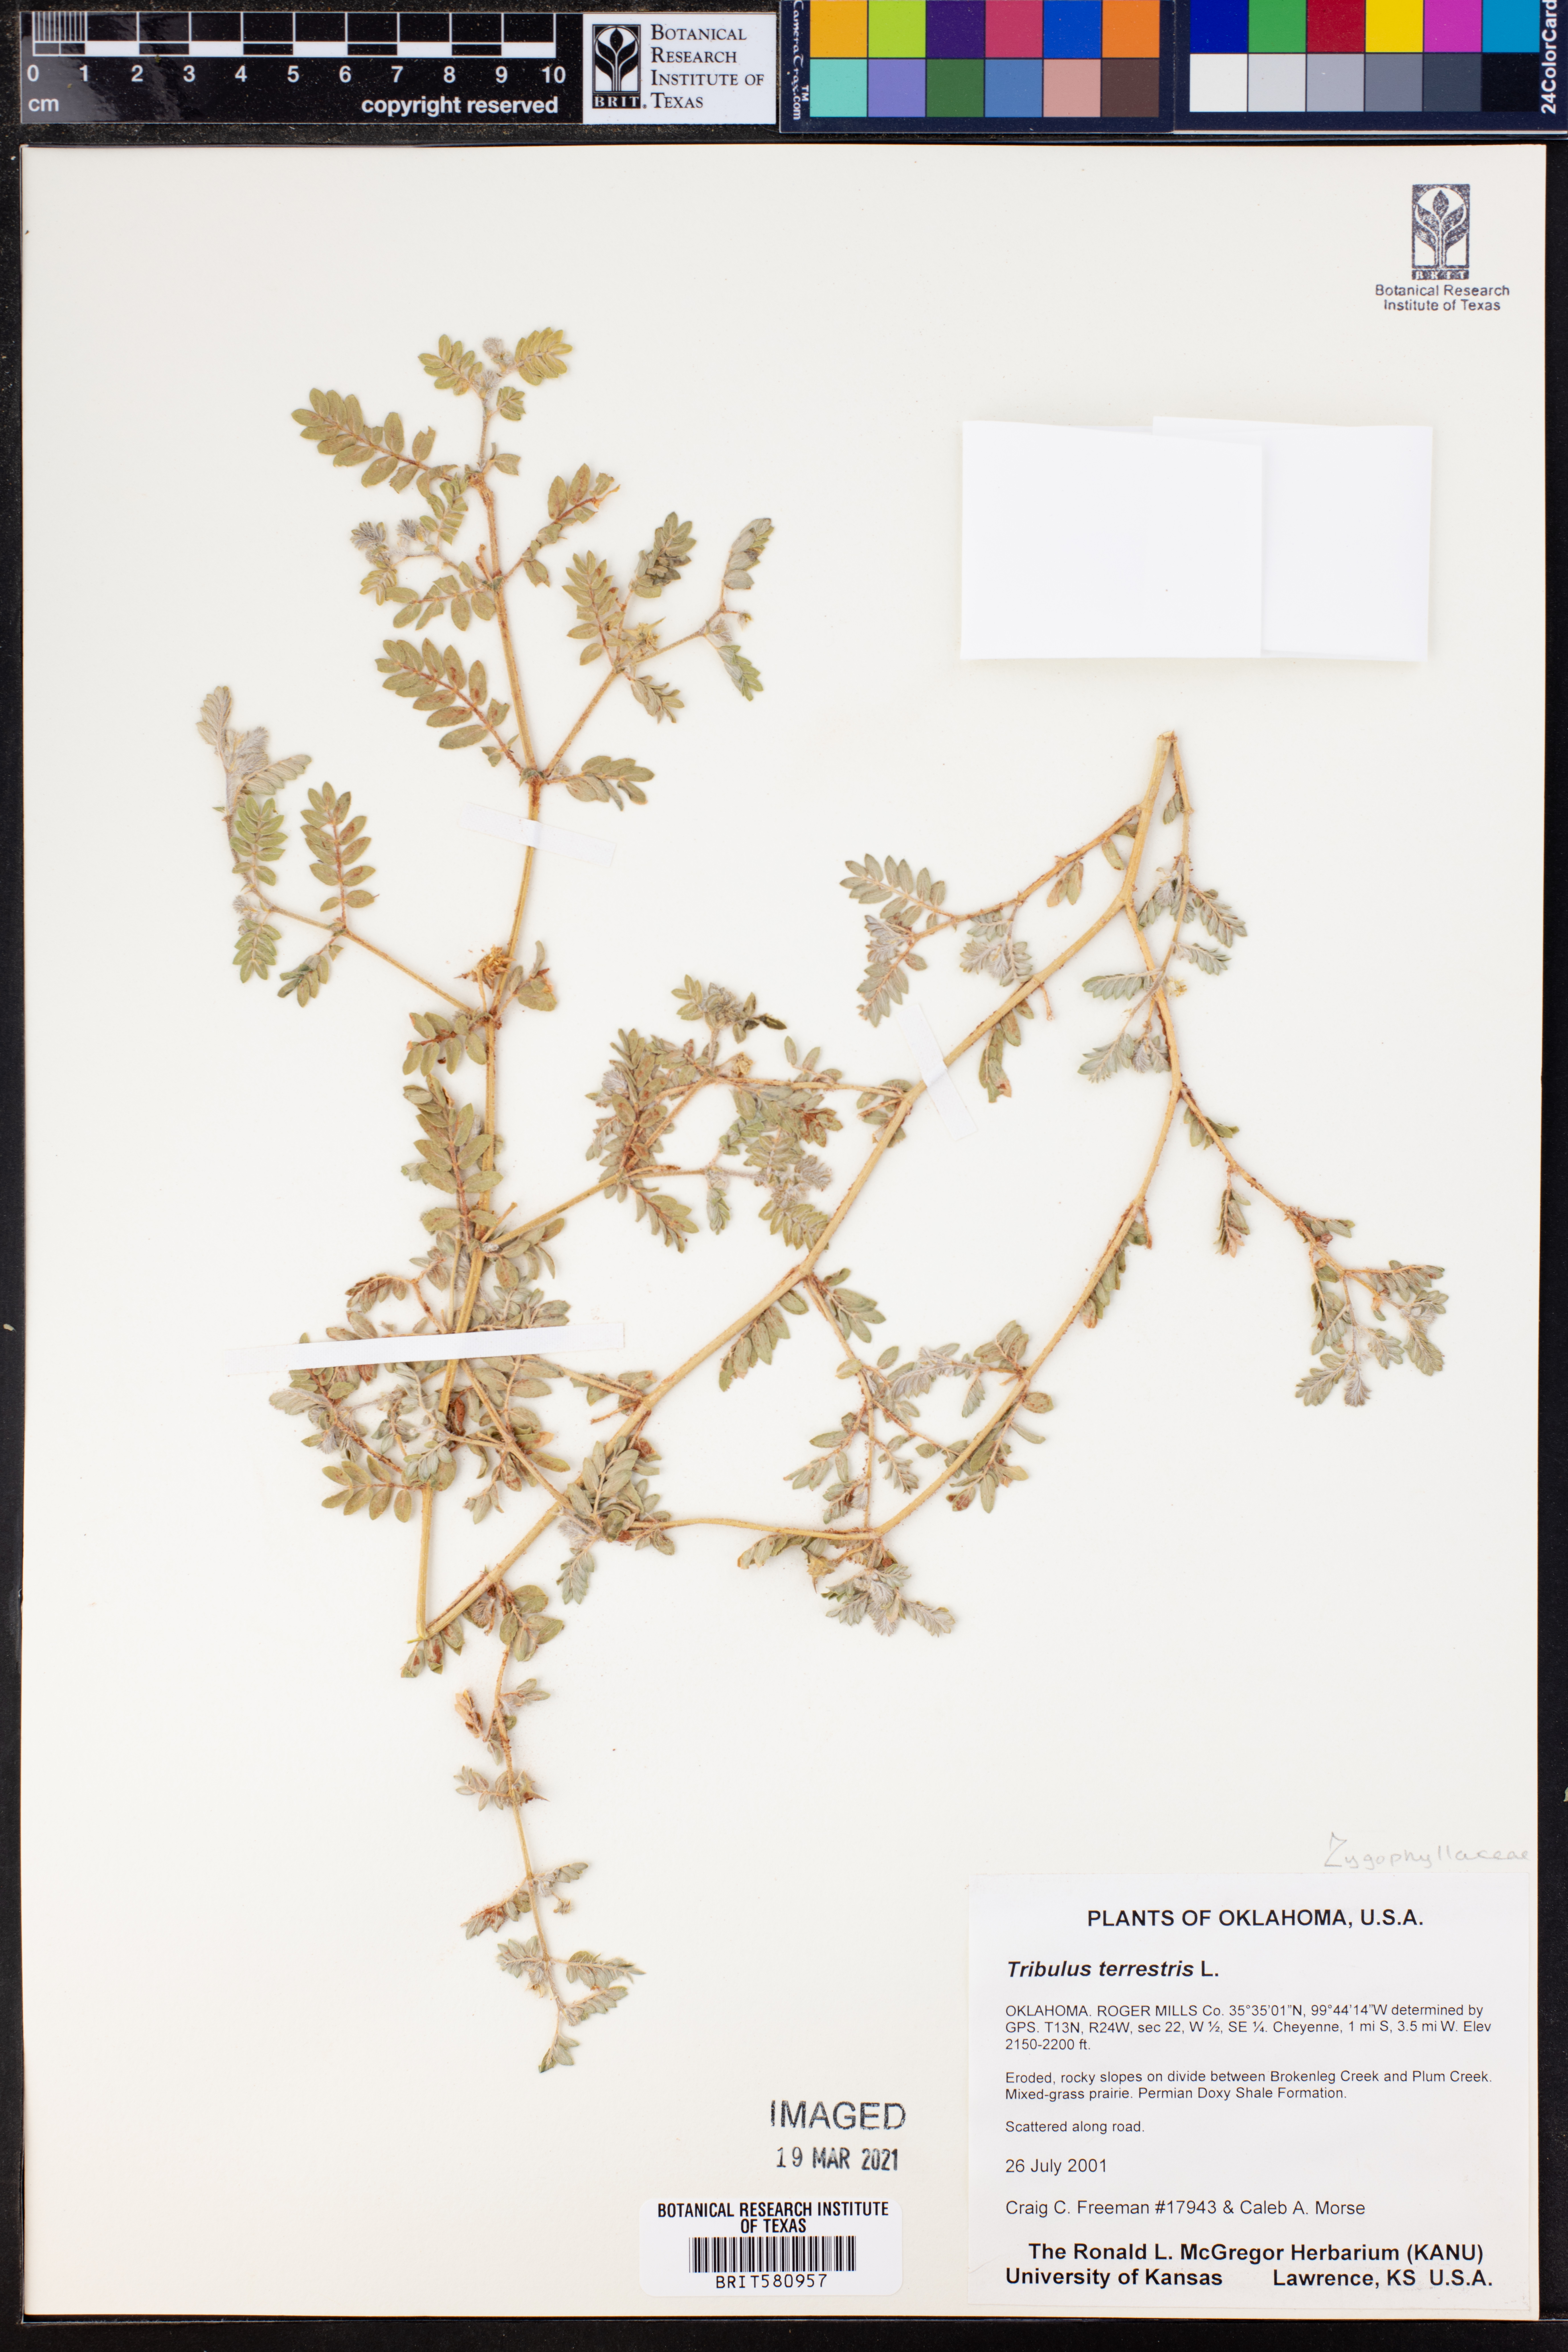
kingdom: Plantae
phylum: Tracheophyta
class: Magnoliopsida
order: Zygophyllales
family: Zygophyllaceae
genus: Tribulus
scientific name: Tribulus terrestris
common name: Puncturevine
